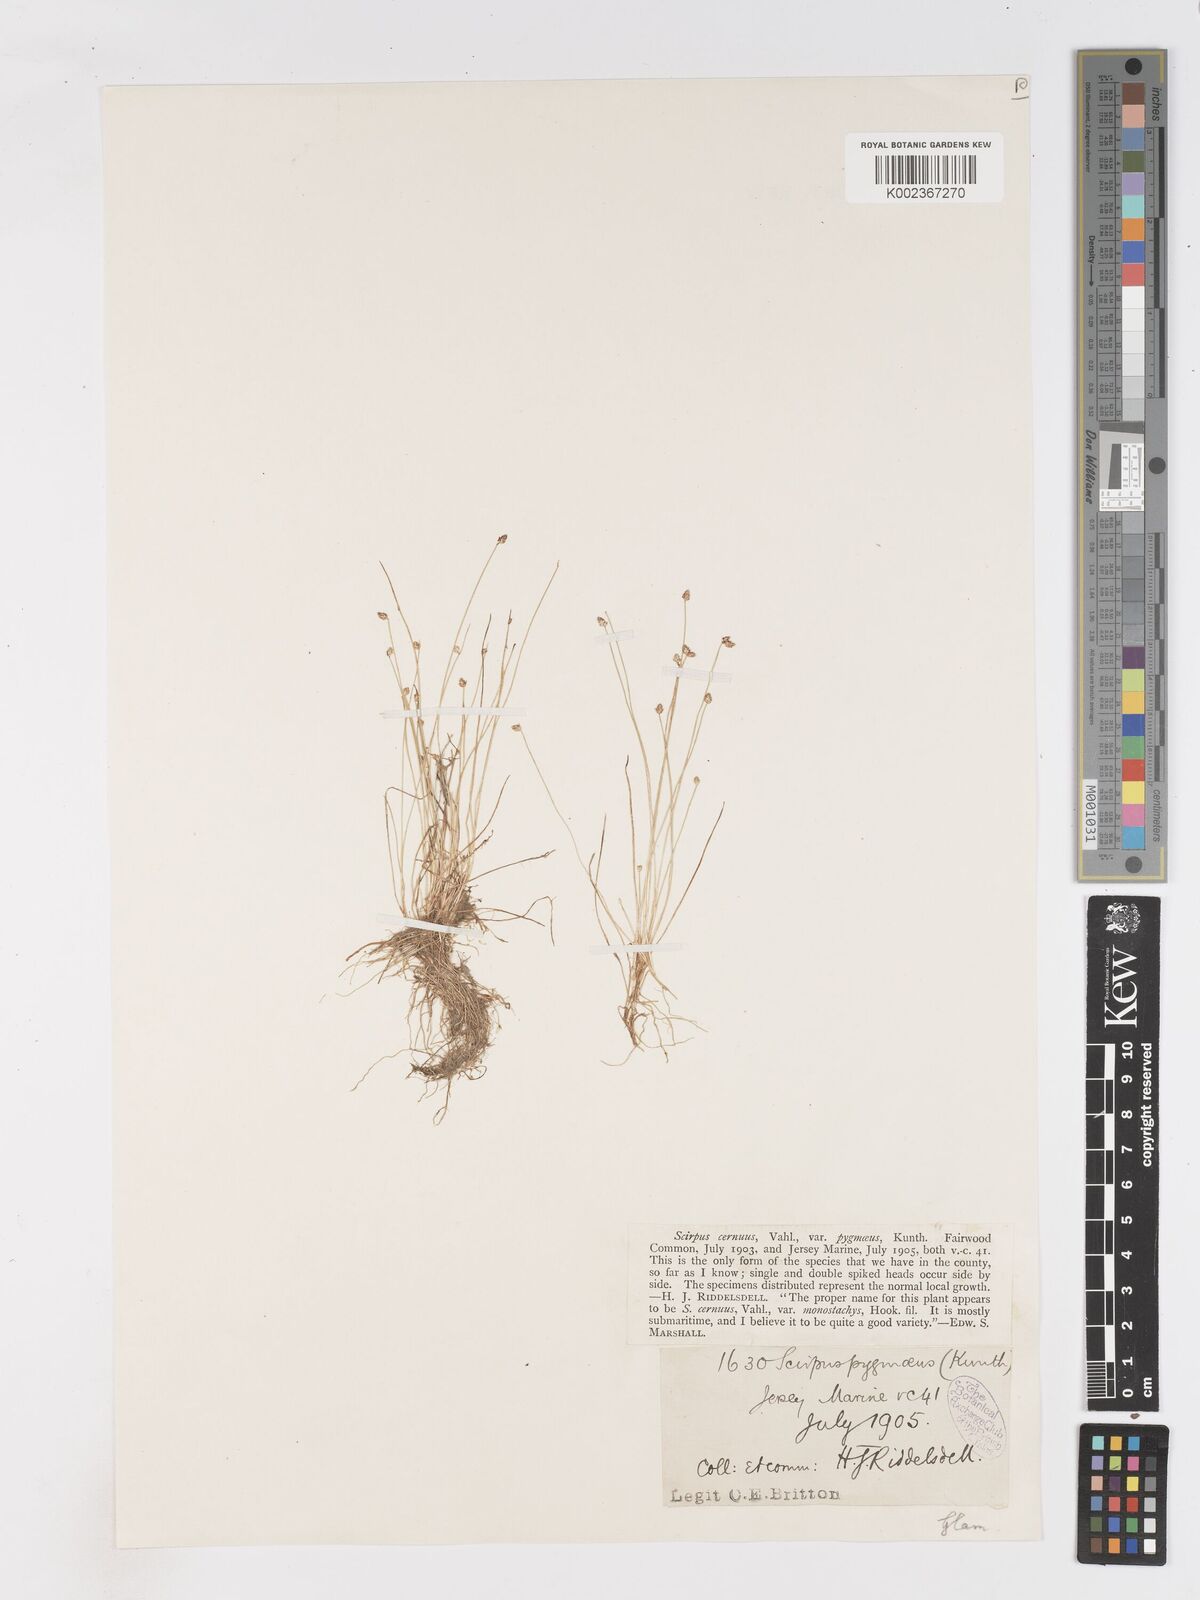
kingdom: Plantae
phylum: Tracheophyta
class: Liliopsida
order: Poales
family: Cyperaceae
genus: Isolepis
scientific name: Isolepis cernua
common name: Slender club-rush
